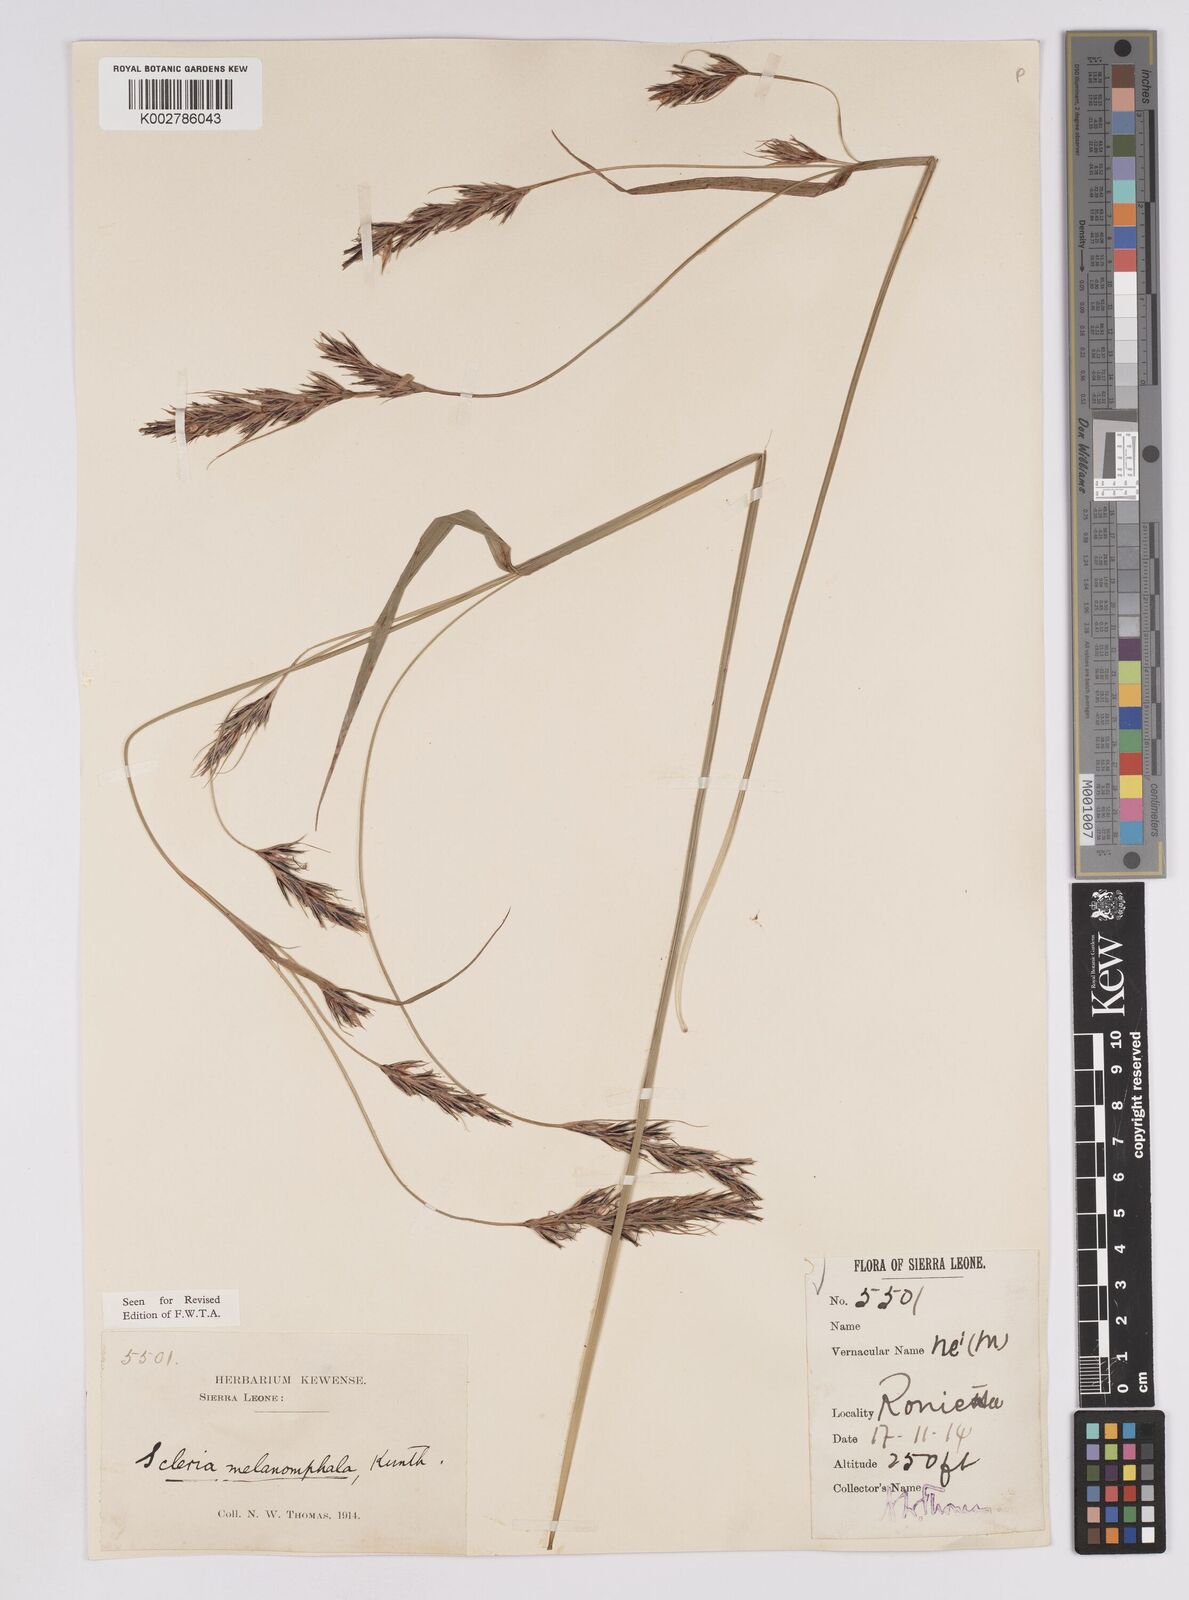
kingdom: Plantae
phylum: Tracheophyta
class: Liliopsida
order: Poales
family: Cyperaceae
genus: Scleria
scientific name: Scleria melanomphala
